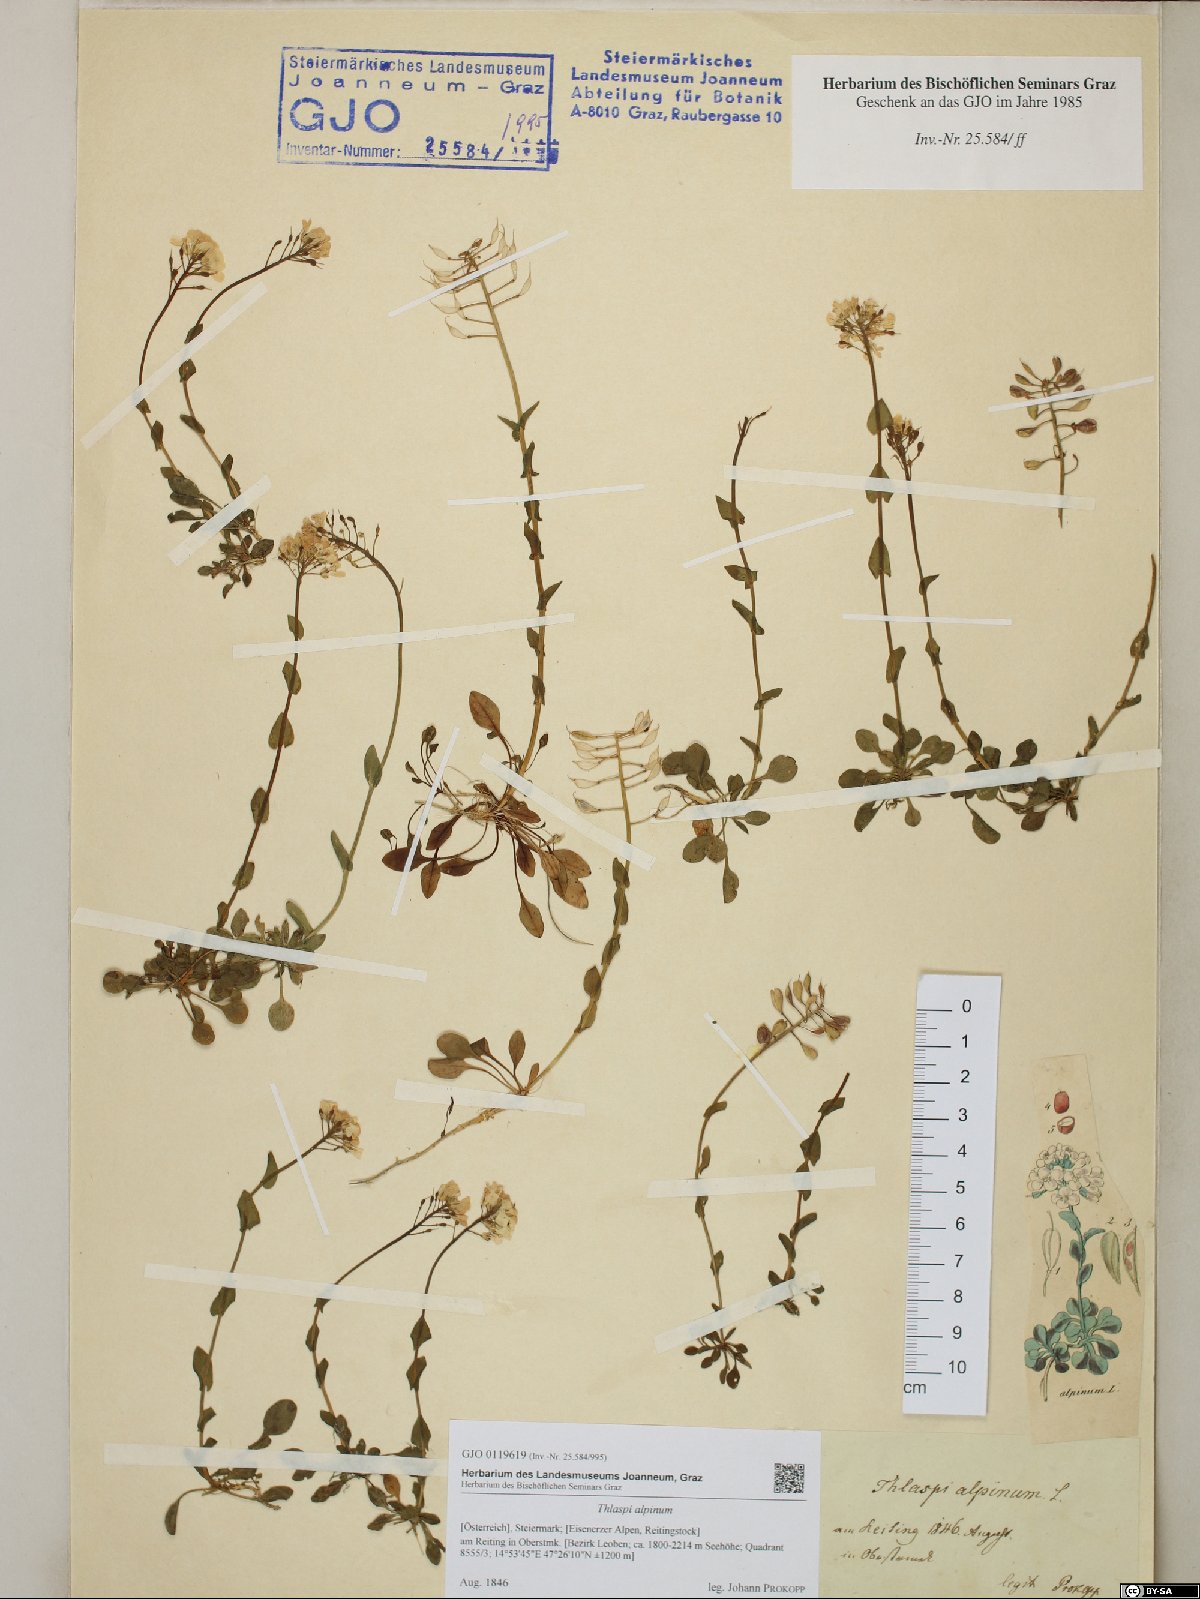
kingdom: Plantae
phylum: Tracheophyta
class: Magnoliopsida
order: Brassicales
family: Brassicaceae
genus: Noccaea
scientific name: Noccaea alpestris
